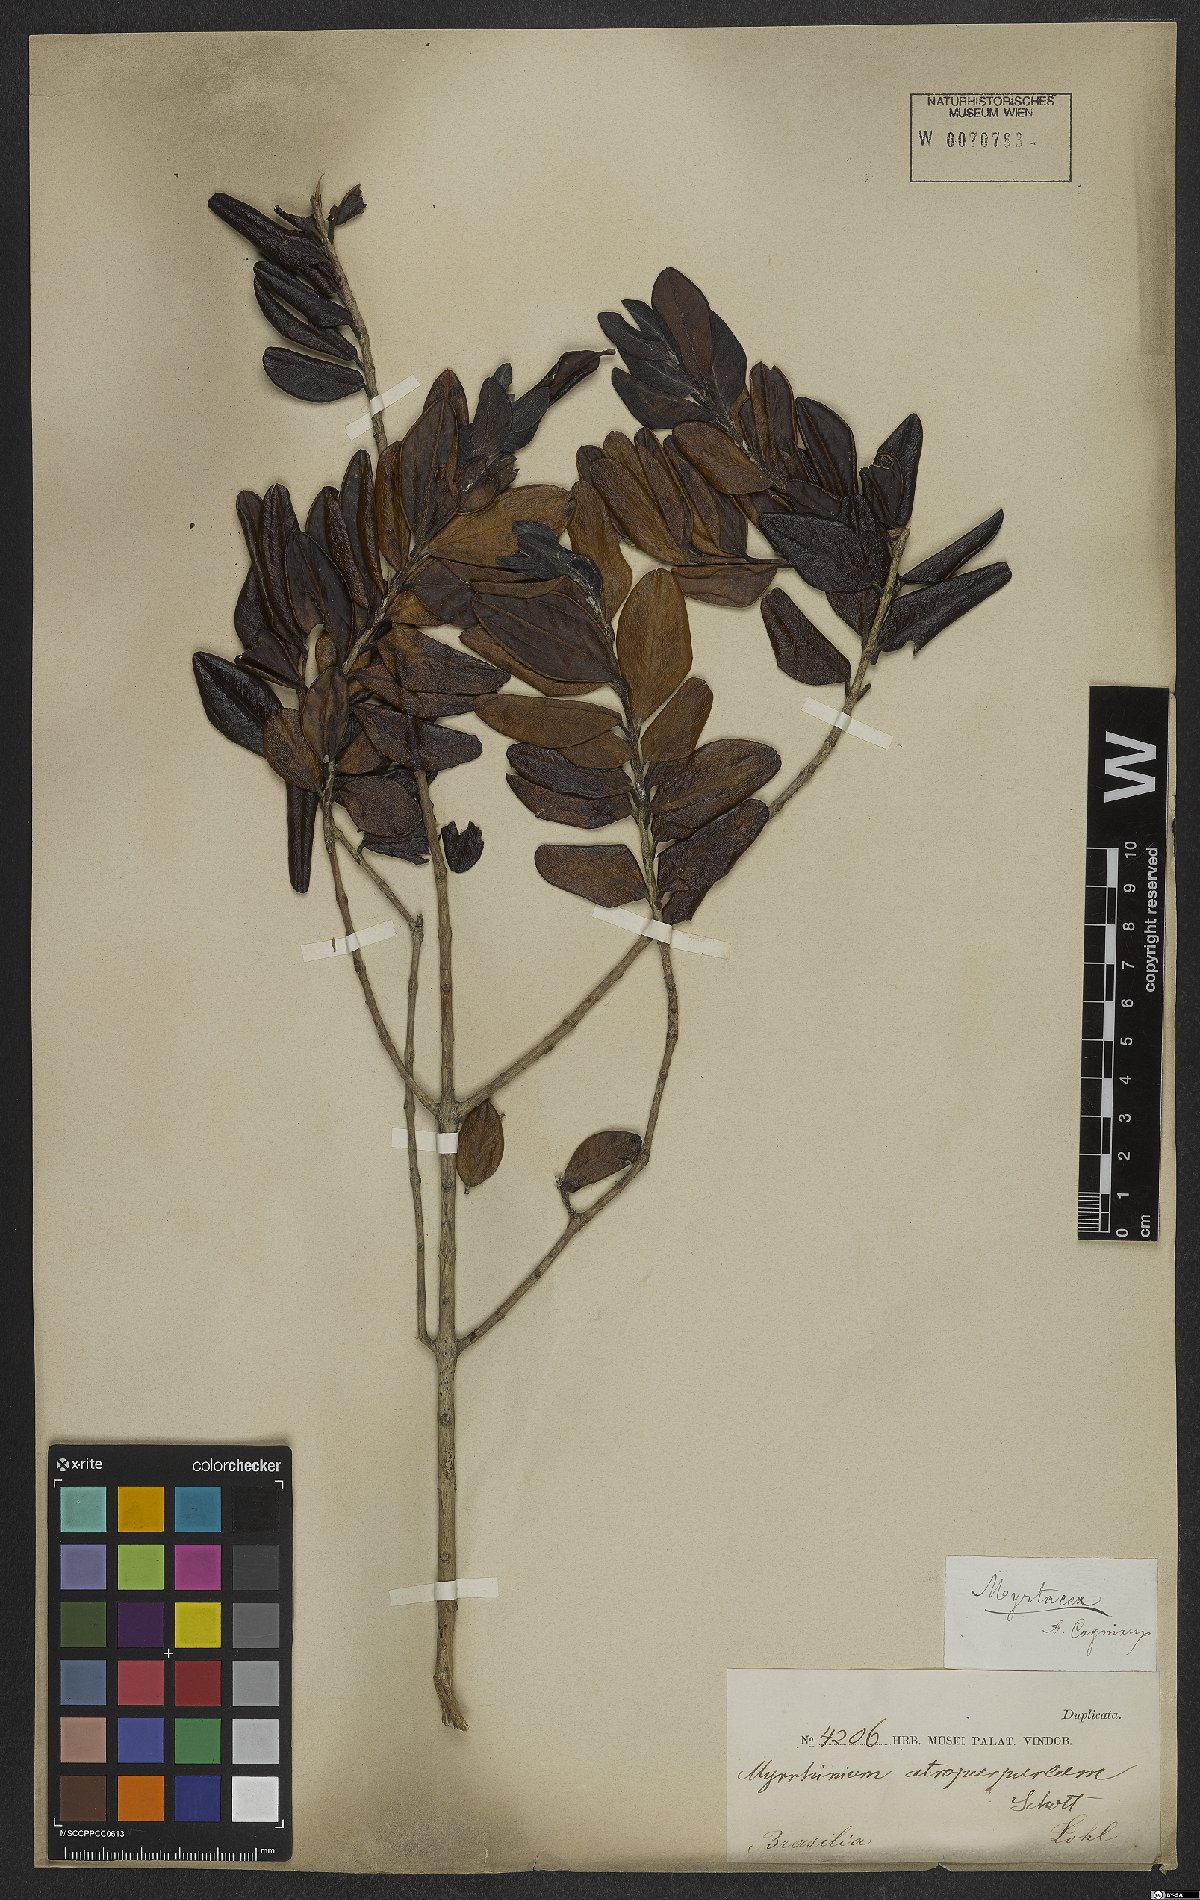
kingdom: Plantae
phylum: Tracheophyta
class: Magnoliopsida
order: Myrtales
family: Myrtaceae
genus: Myrrhinium
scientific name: Myrrhinium atropurpureum
